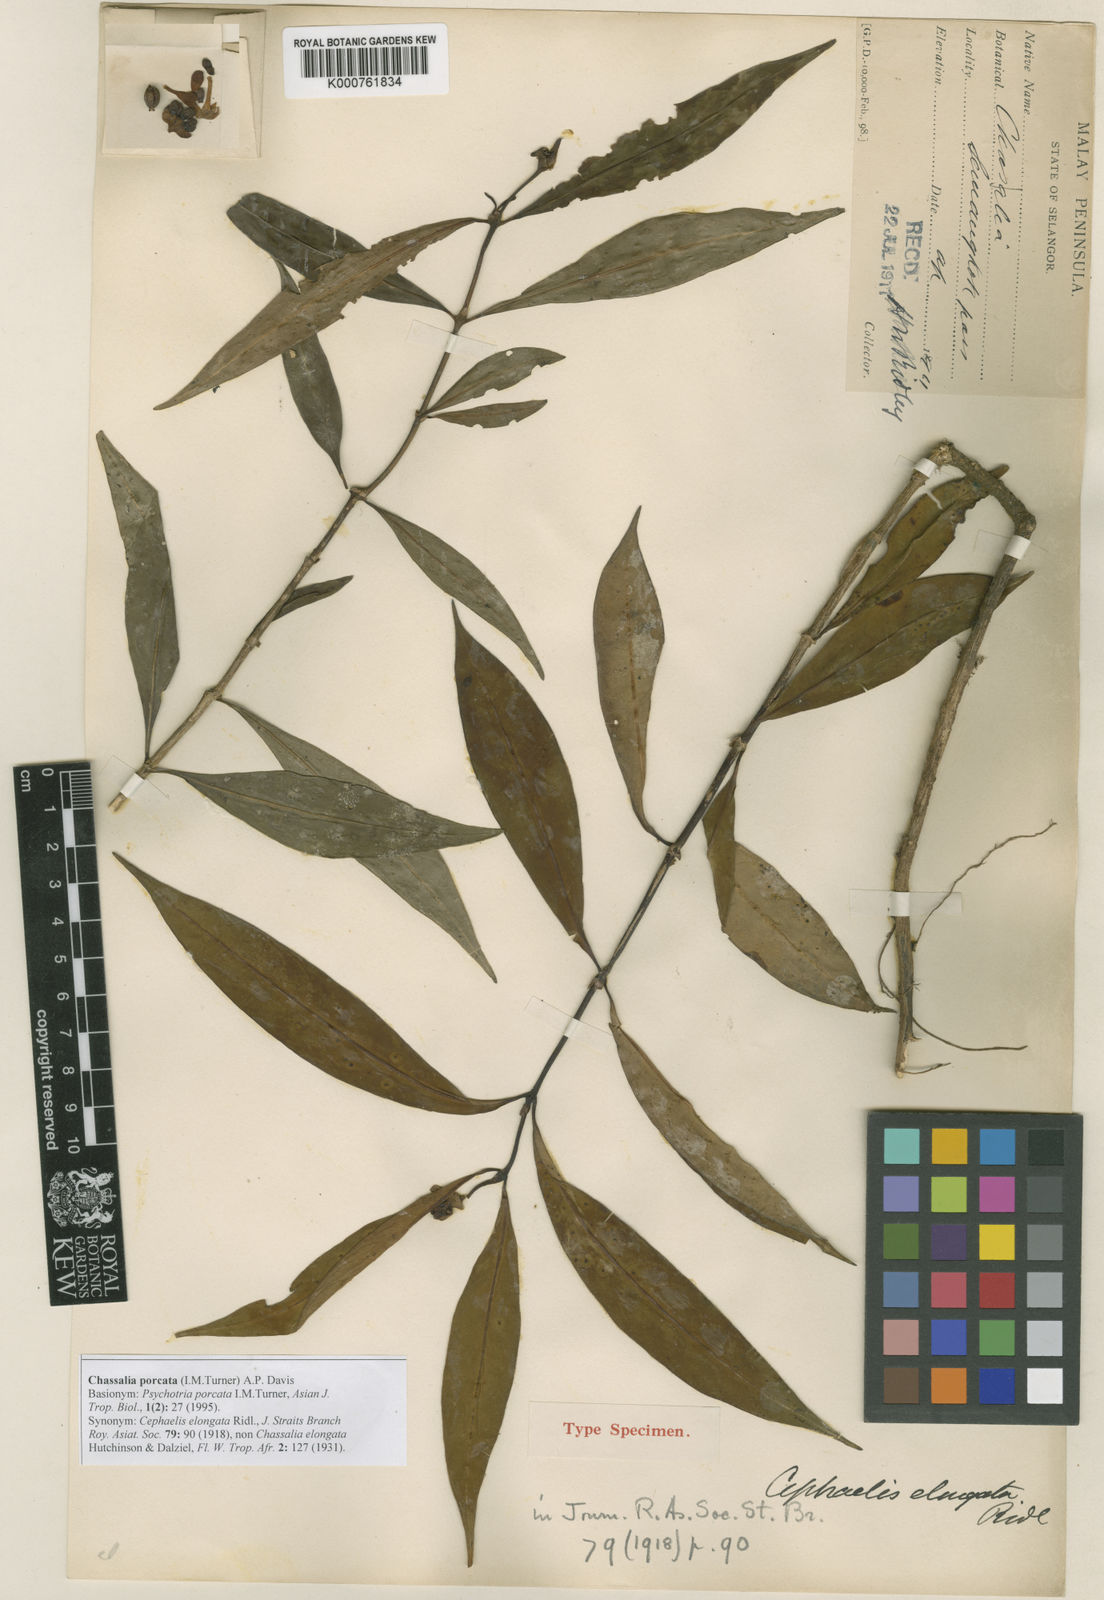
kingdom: Plantae
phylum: Tracheophyta
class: Magnoliopsida
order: Gentianales
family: Rubiaceae
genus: Chassalia
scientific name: Chassalia elongata
